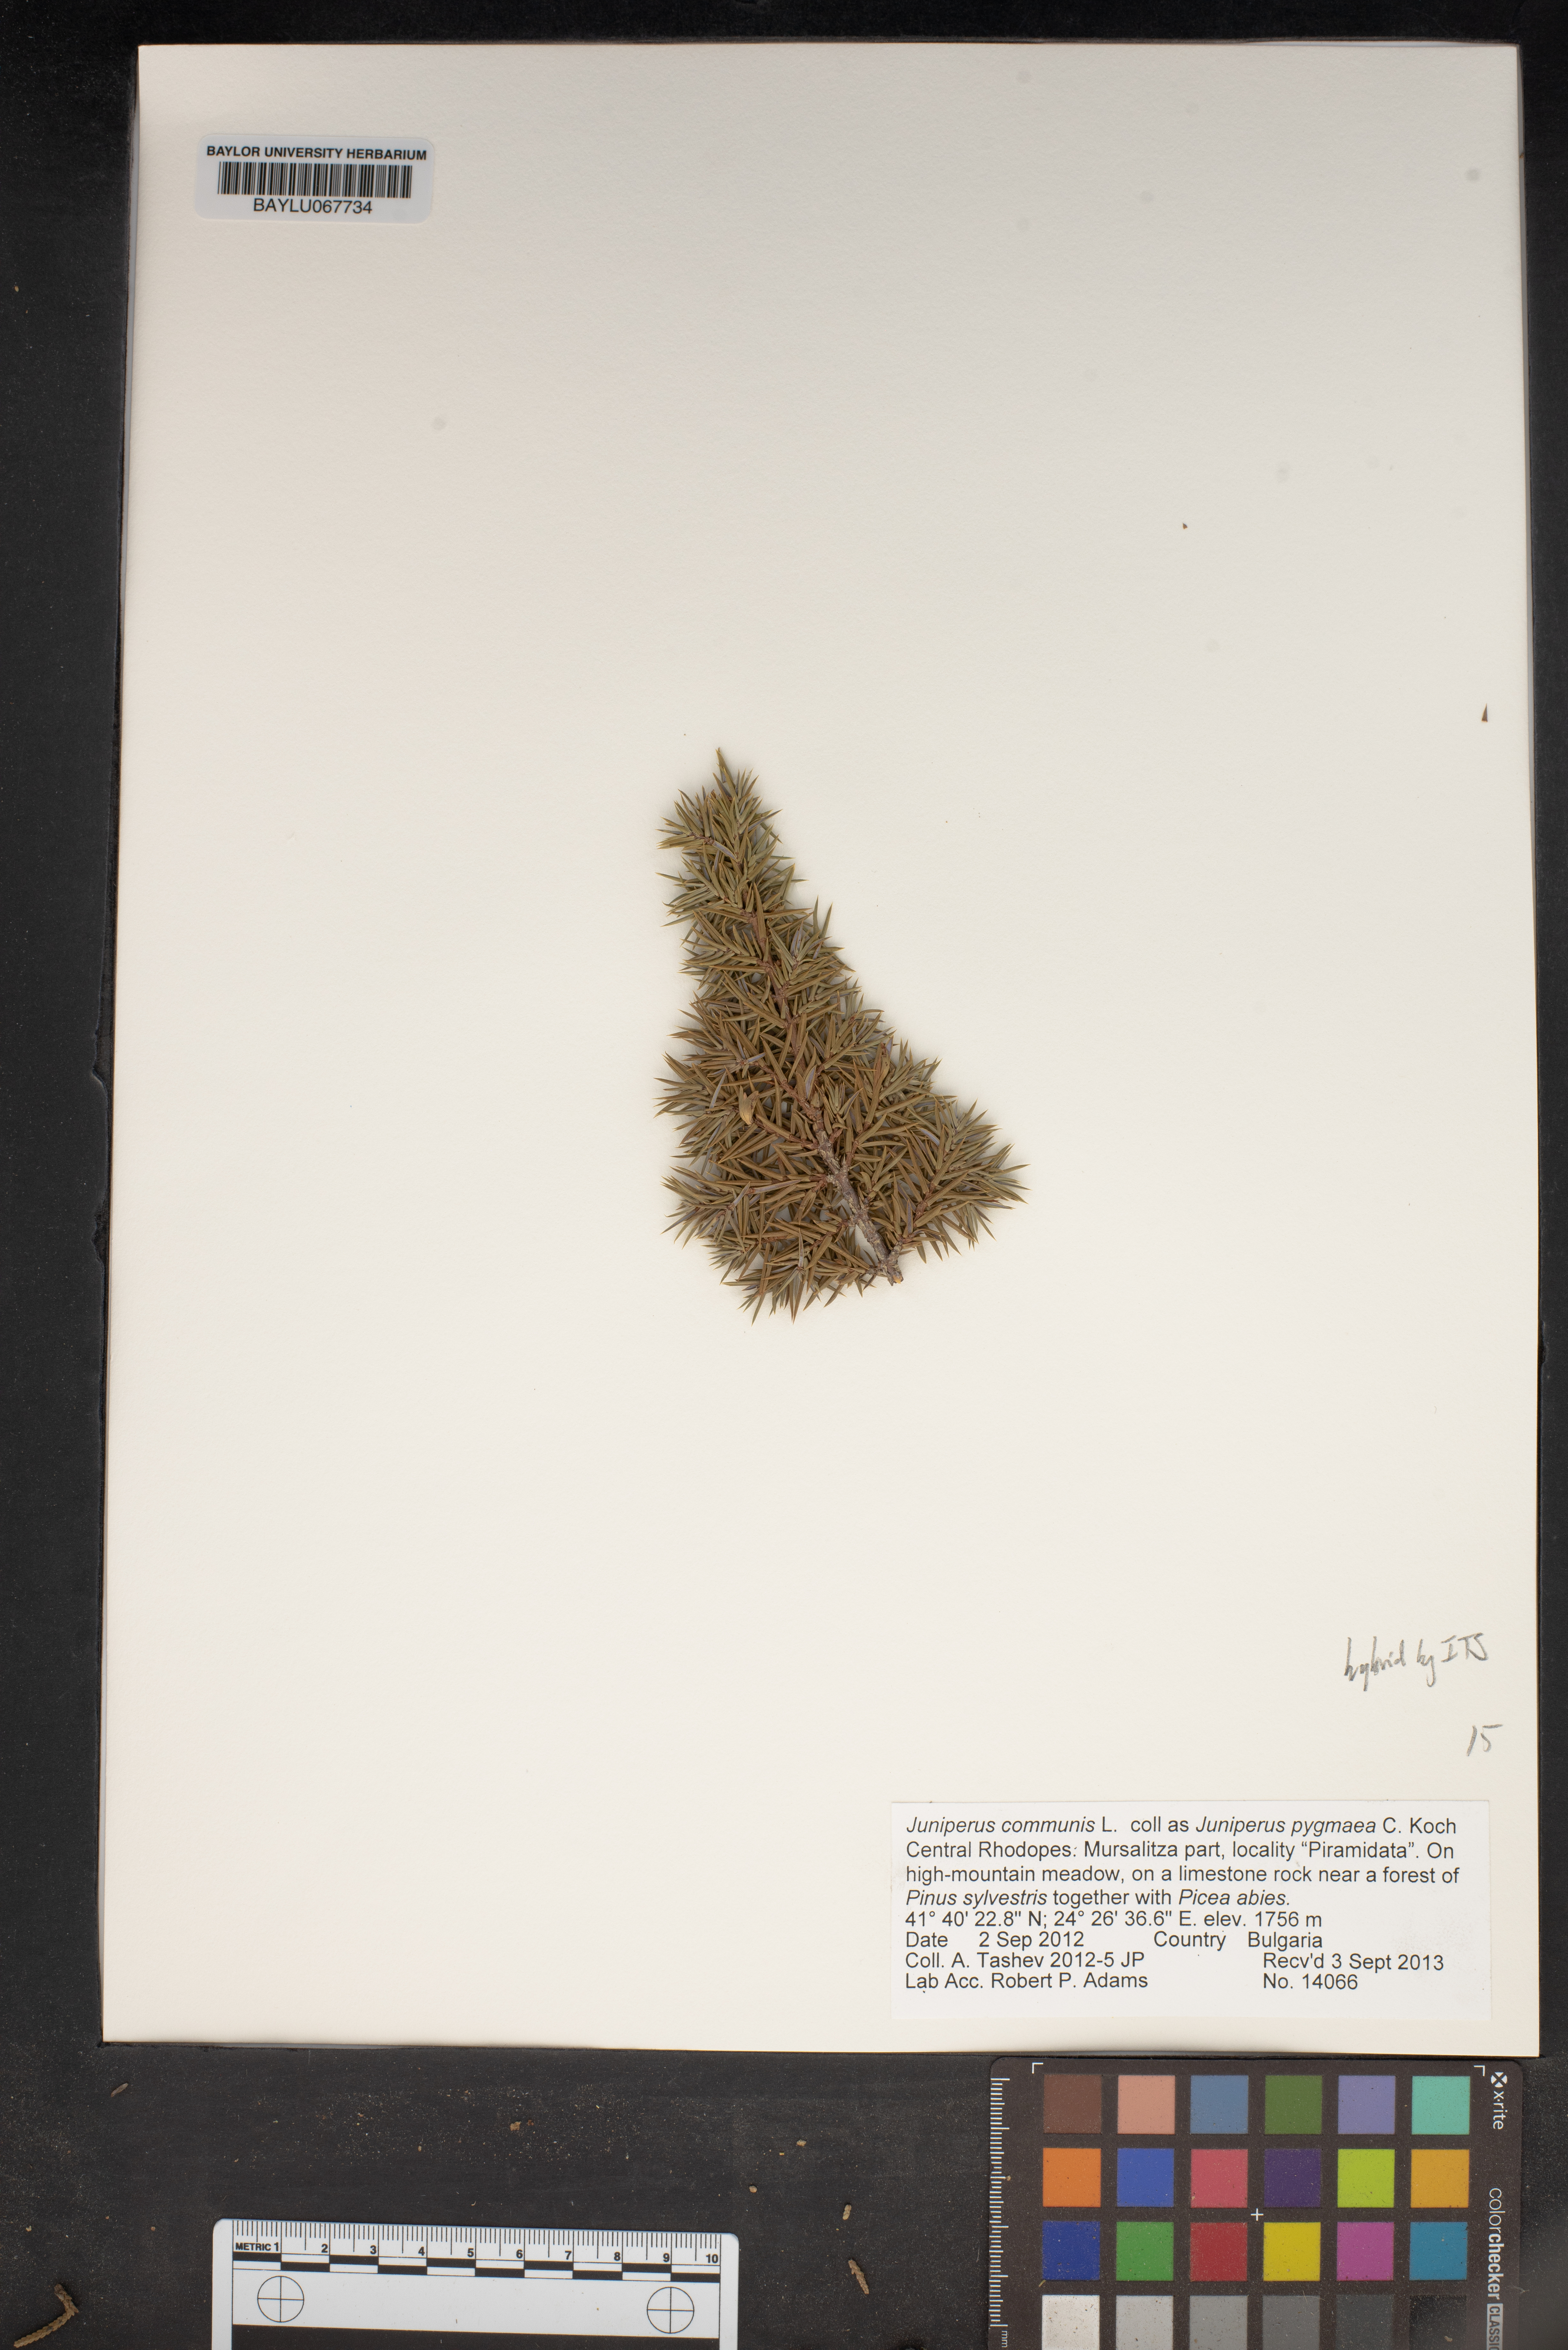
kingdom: Plantae
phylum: Tracheophyta
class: Pinopsida
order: Pinales
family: Cupressaceae
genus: Juniperus
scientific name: Juniperus communis
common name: Common juniper
